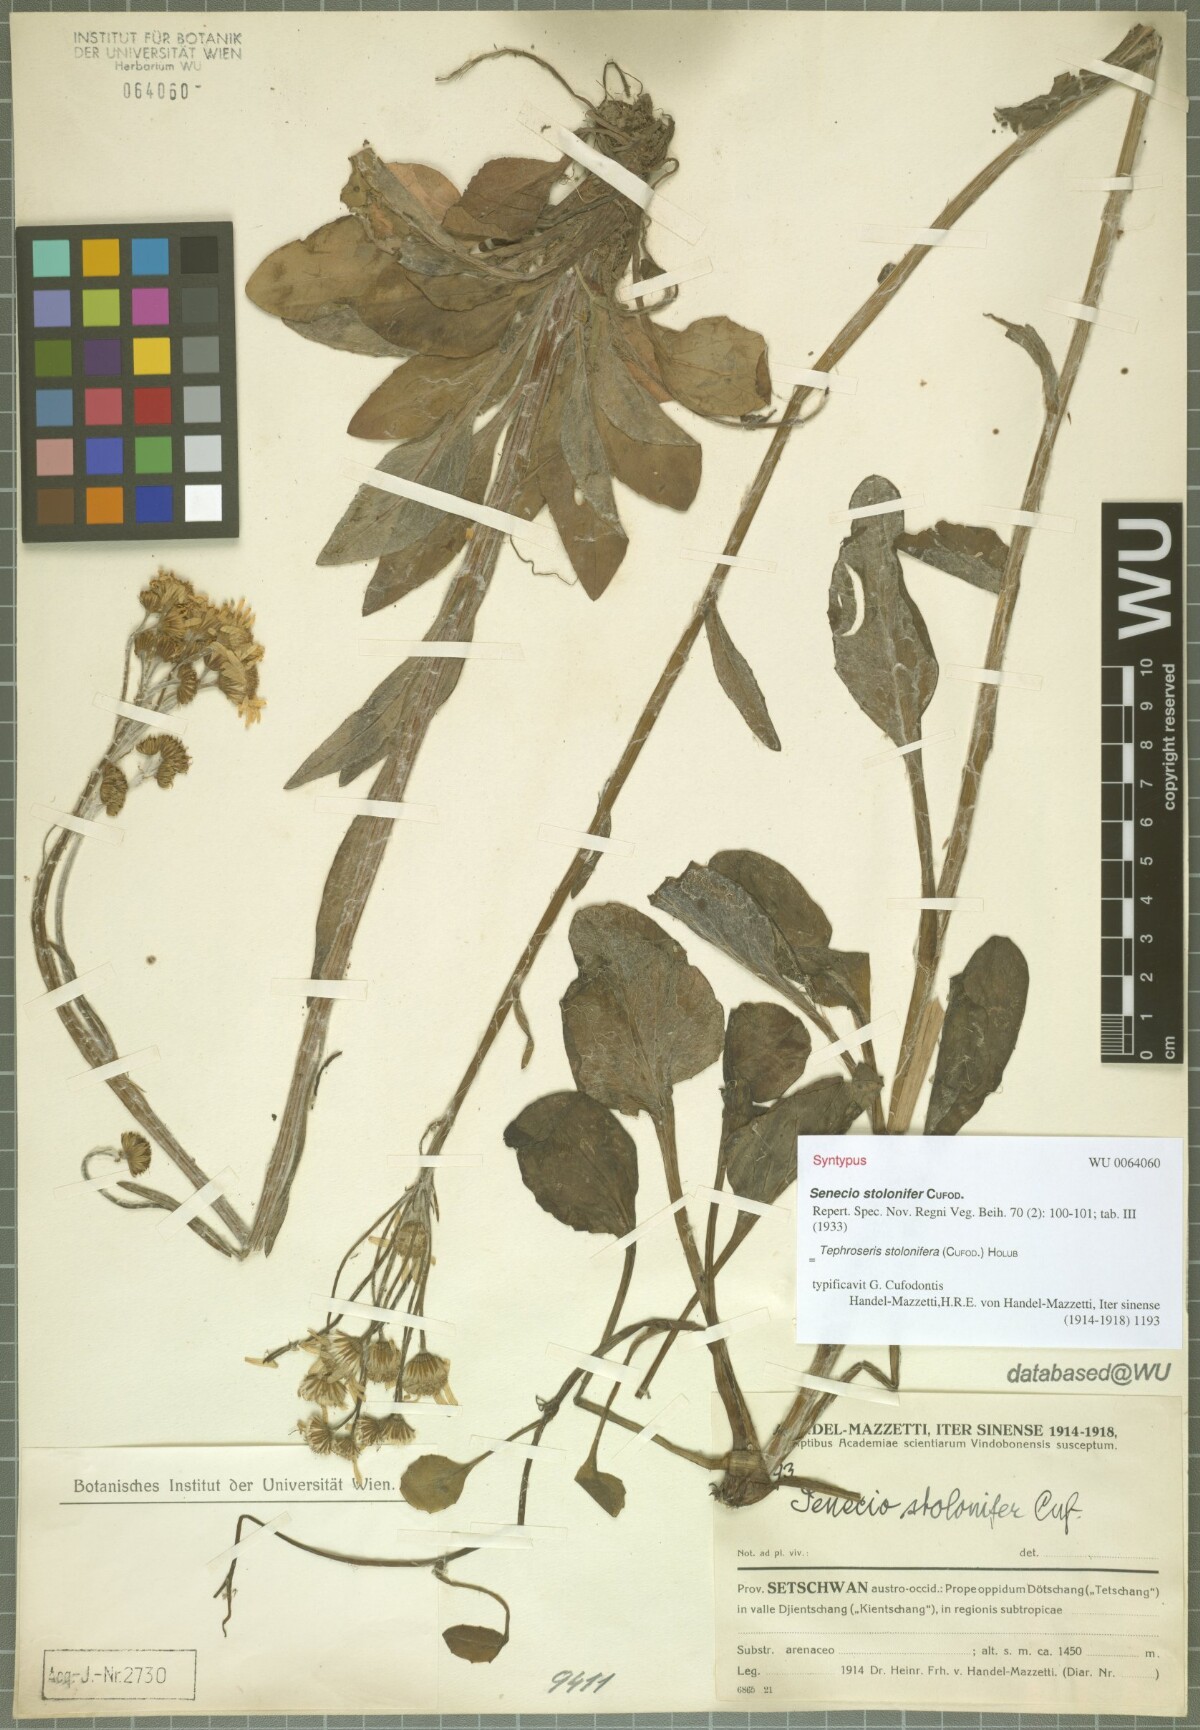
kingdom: Plantae
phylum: Tracheophyta
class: Magnoliopsida
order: Asterales
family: Asteraceae
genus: Tephroseris
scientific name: Tephroseris stolonifera
